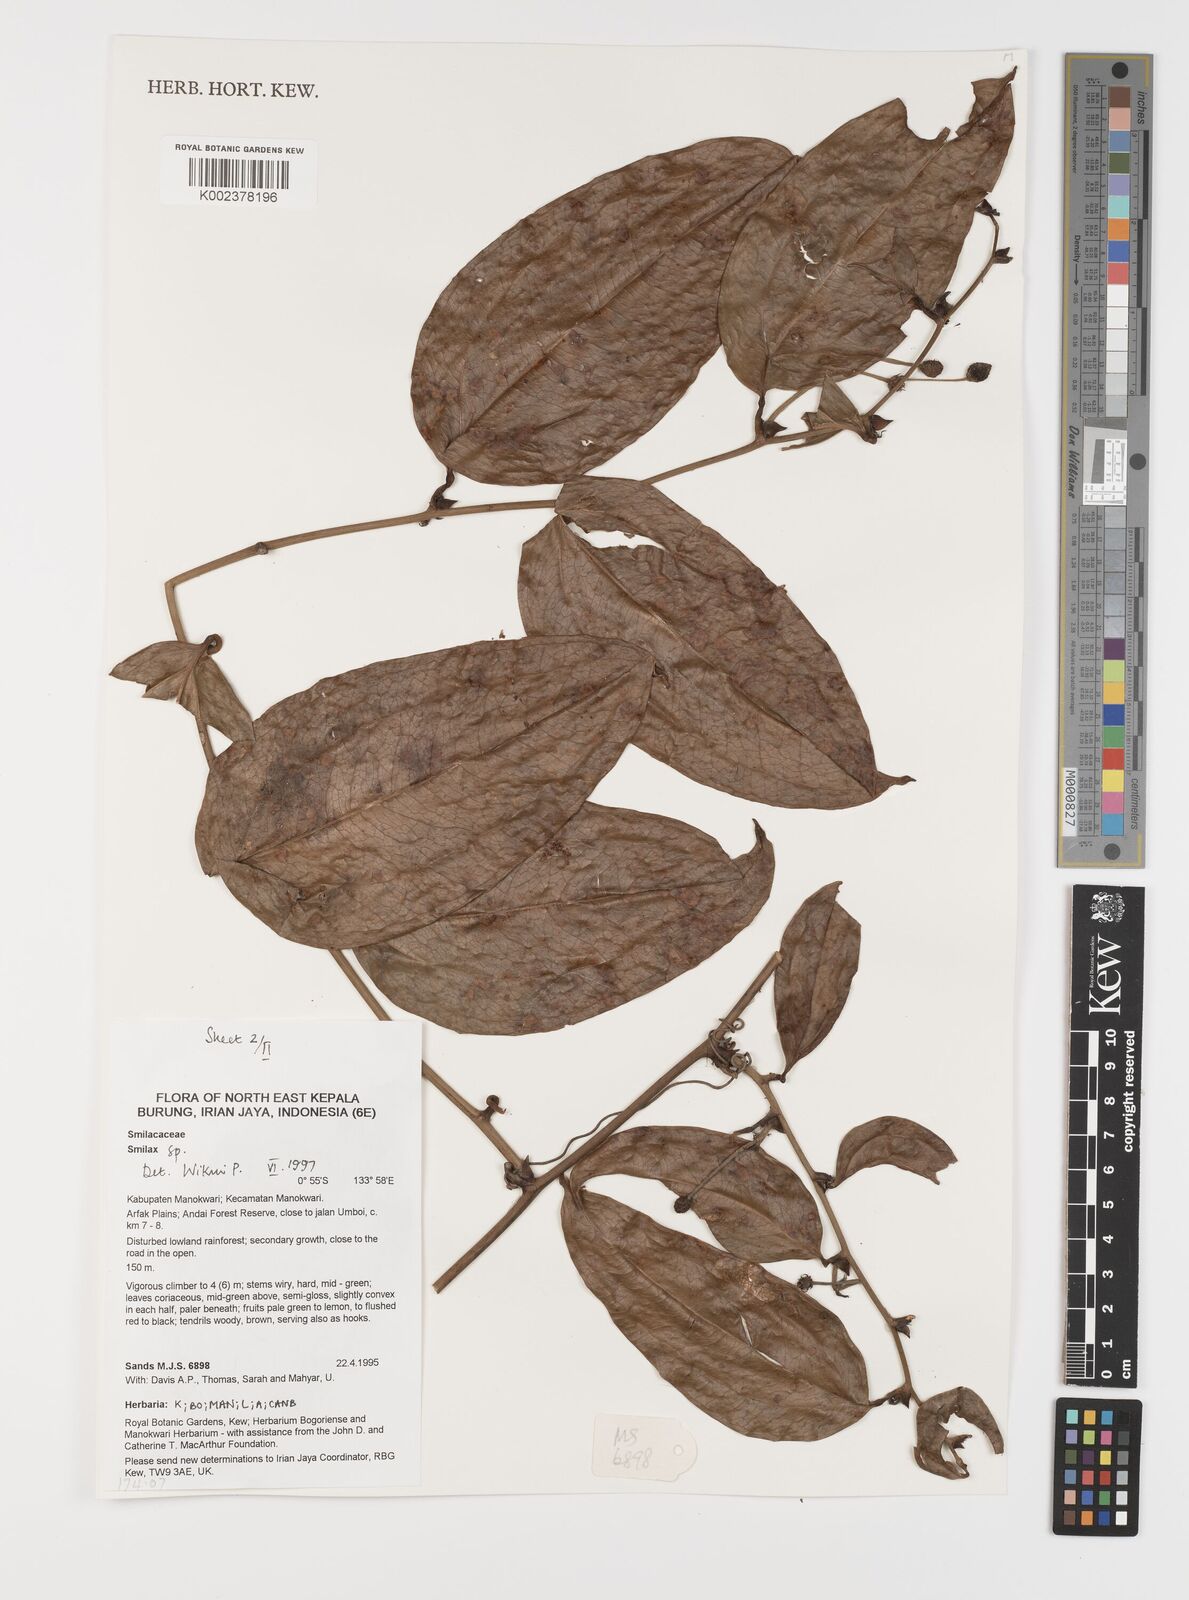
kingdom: Plantae
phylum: Tracheophyta
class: Liliopsida
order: Liliales
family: Smilacaceae
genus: Smilax
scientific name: Smilax
